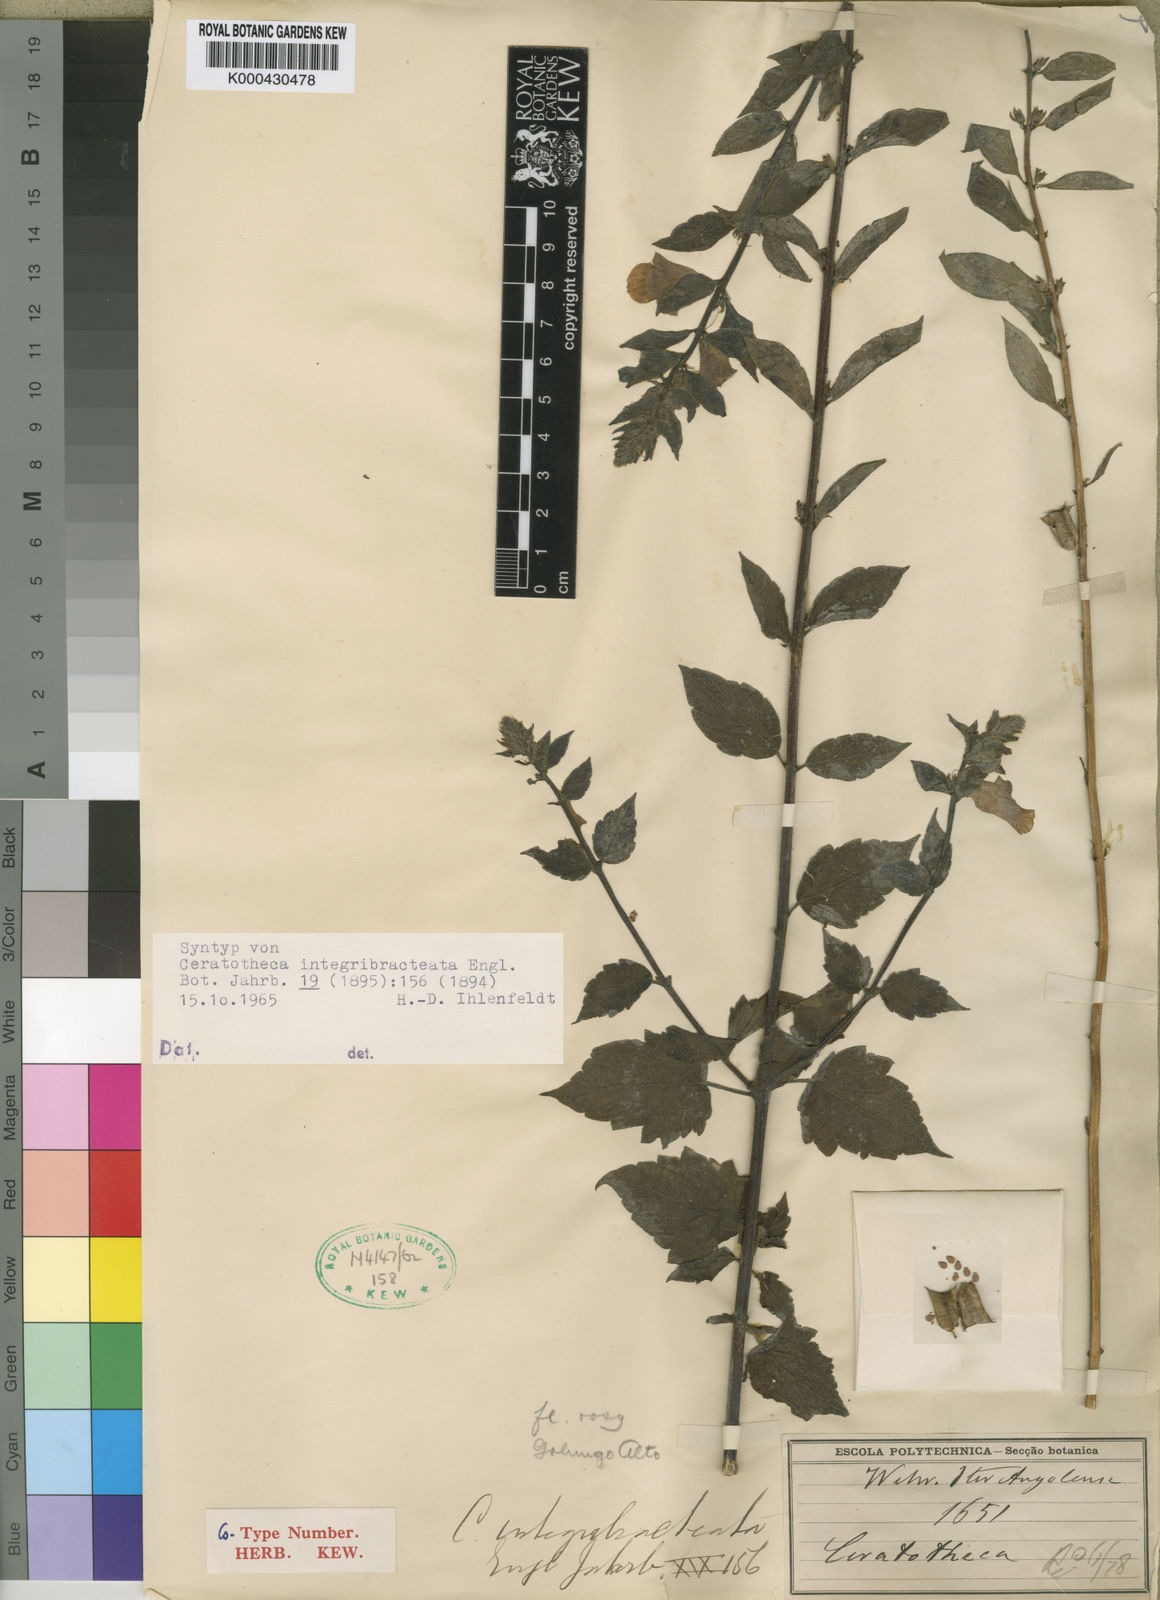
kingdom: Plantae
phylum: Tracheophyta
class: Magnoliopsida
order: Lamiales
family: Pedaliaceae
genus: Sesamum
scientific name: Sesamum integribracteatum
